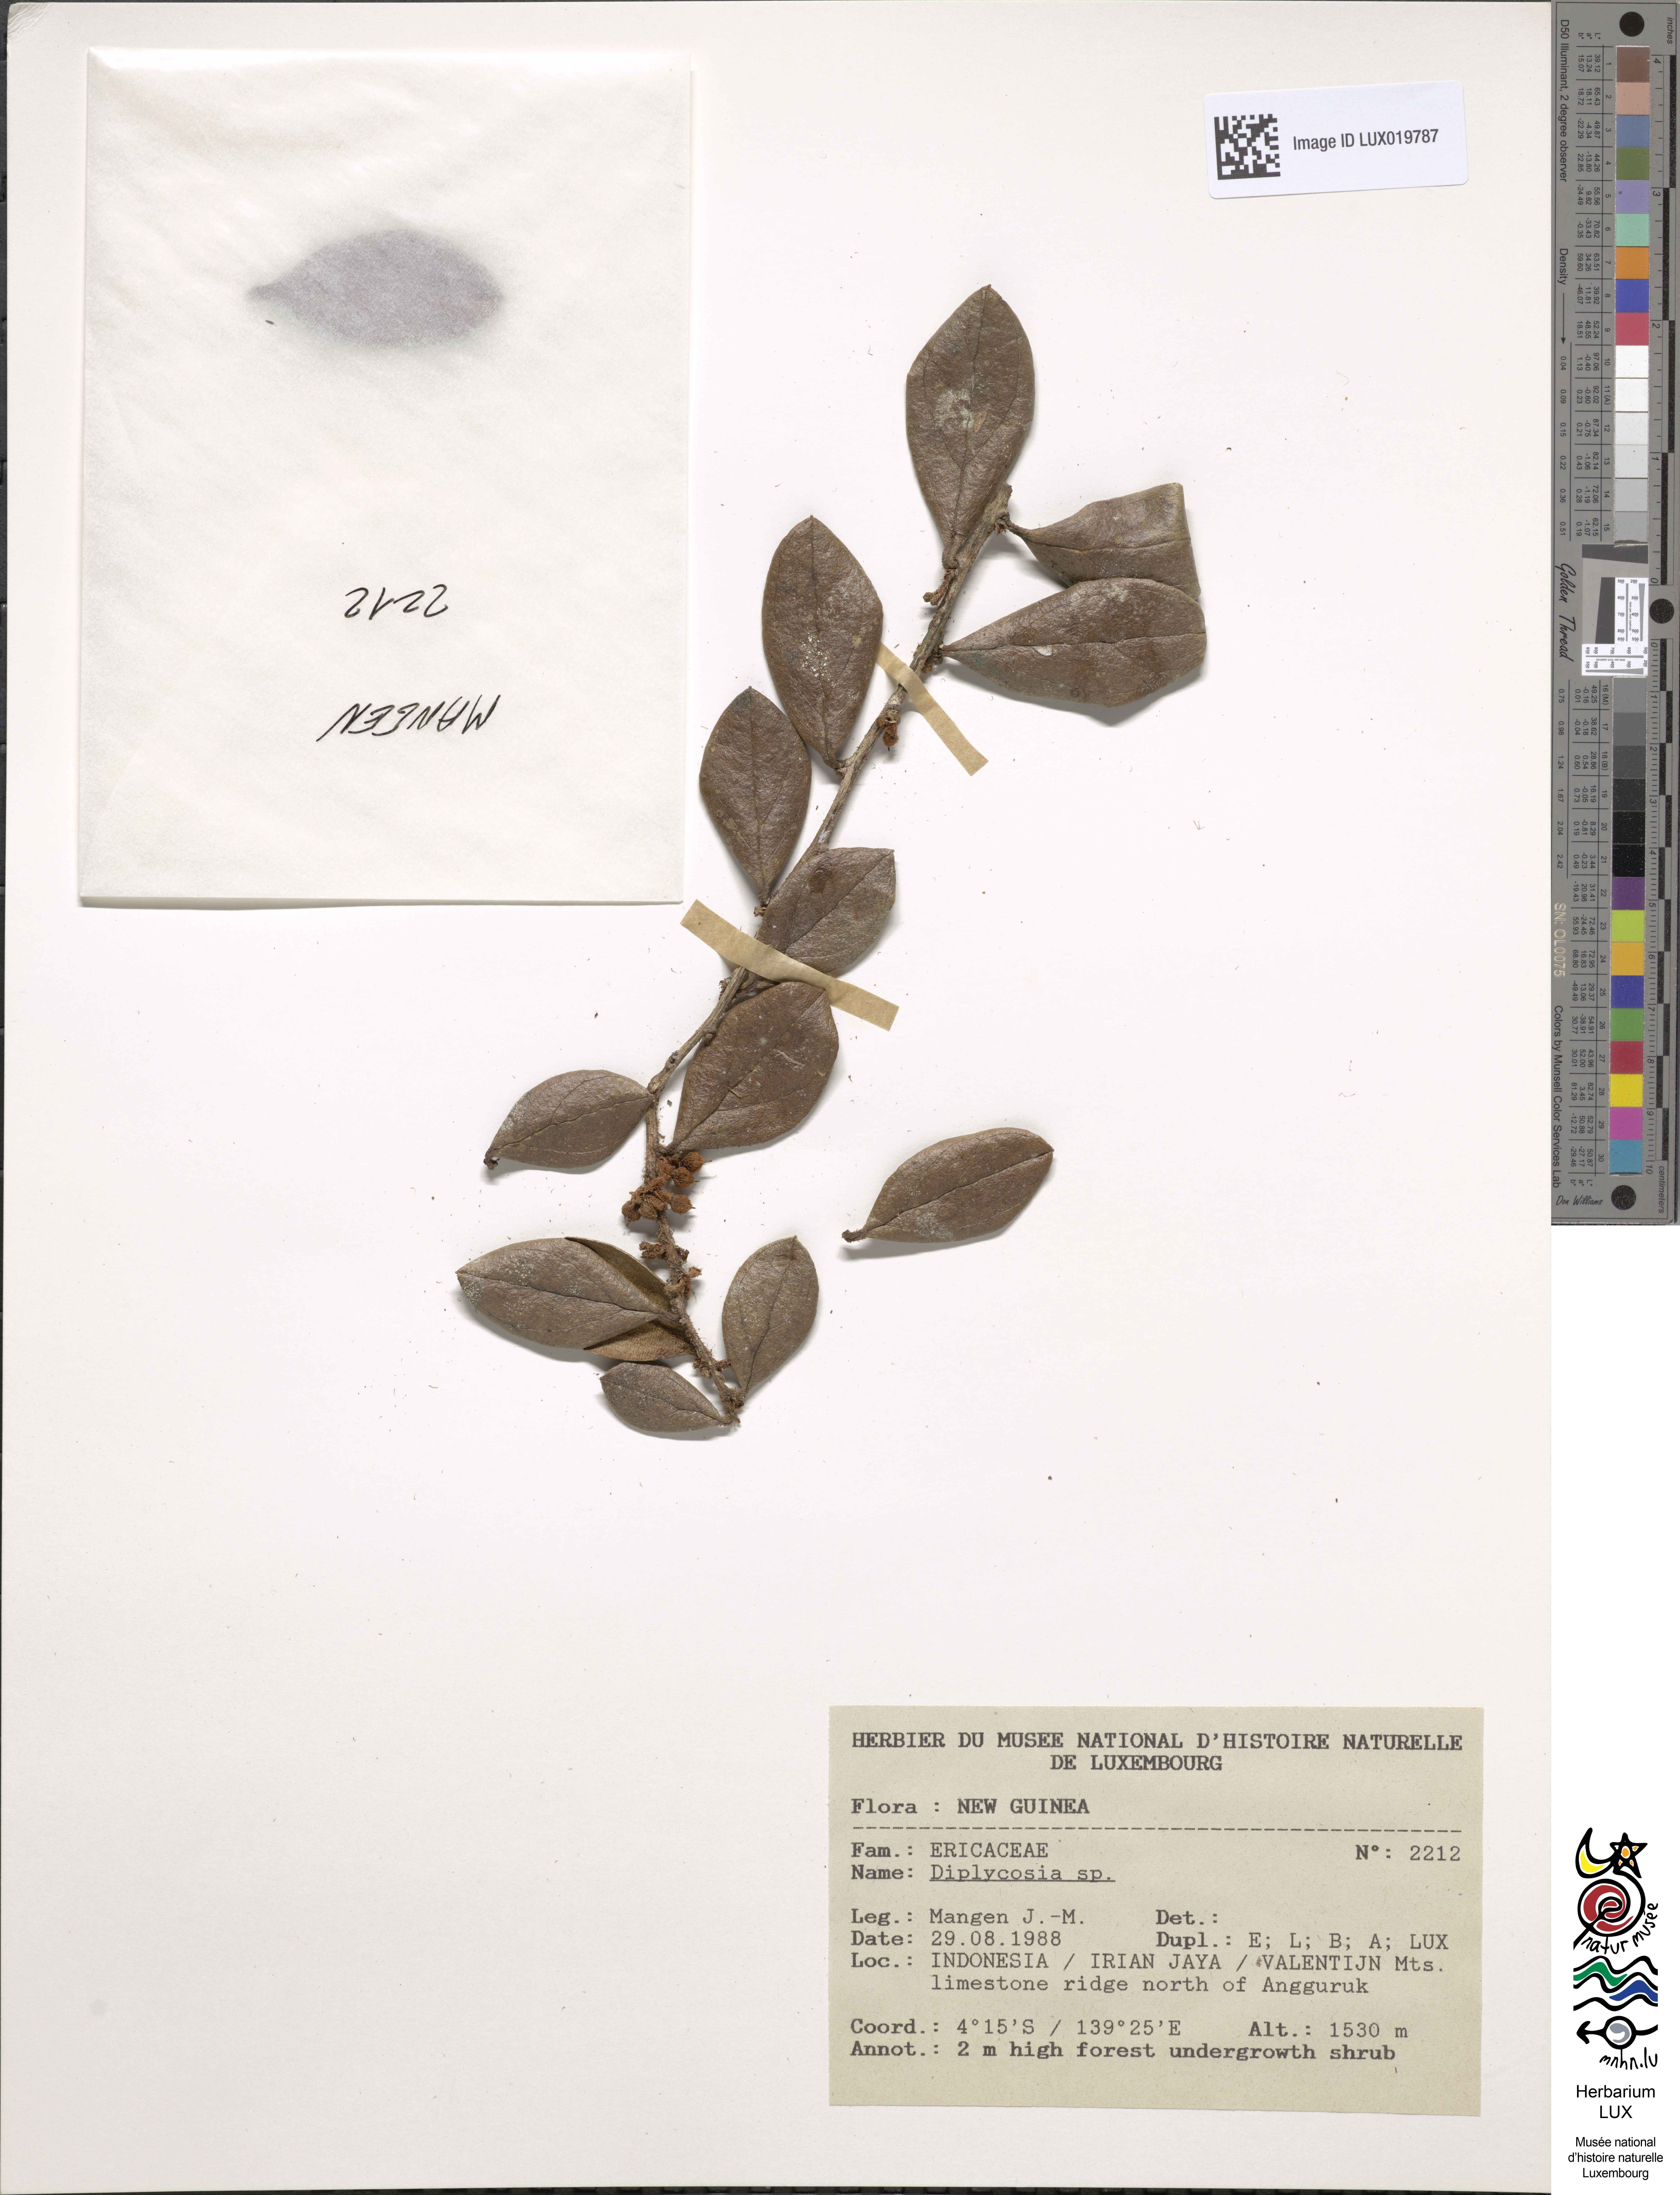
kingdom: Plantae
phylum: Tracheophyta
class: Magnoliopsida
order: Ericales
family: Ericaceae
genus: Gaultheria
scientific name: Gaultheria
